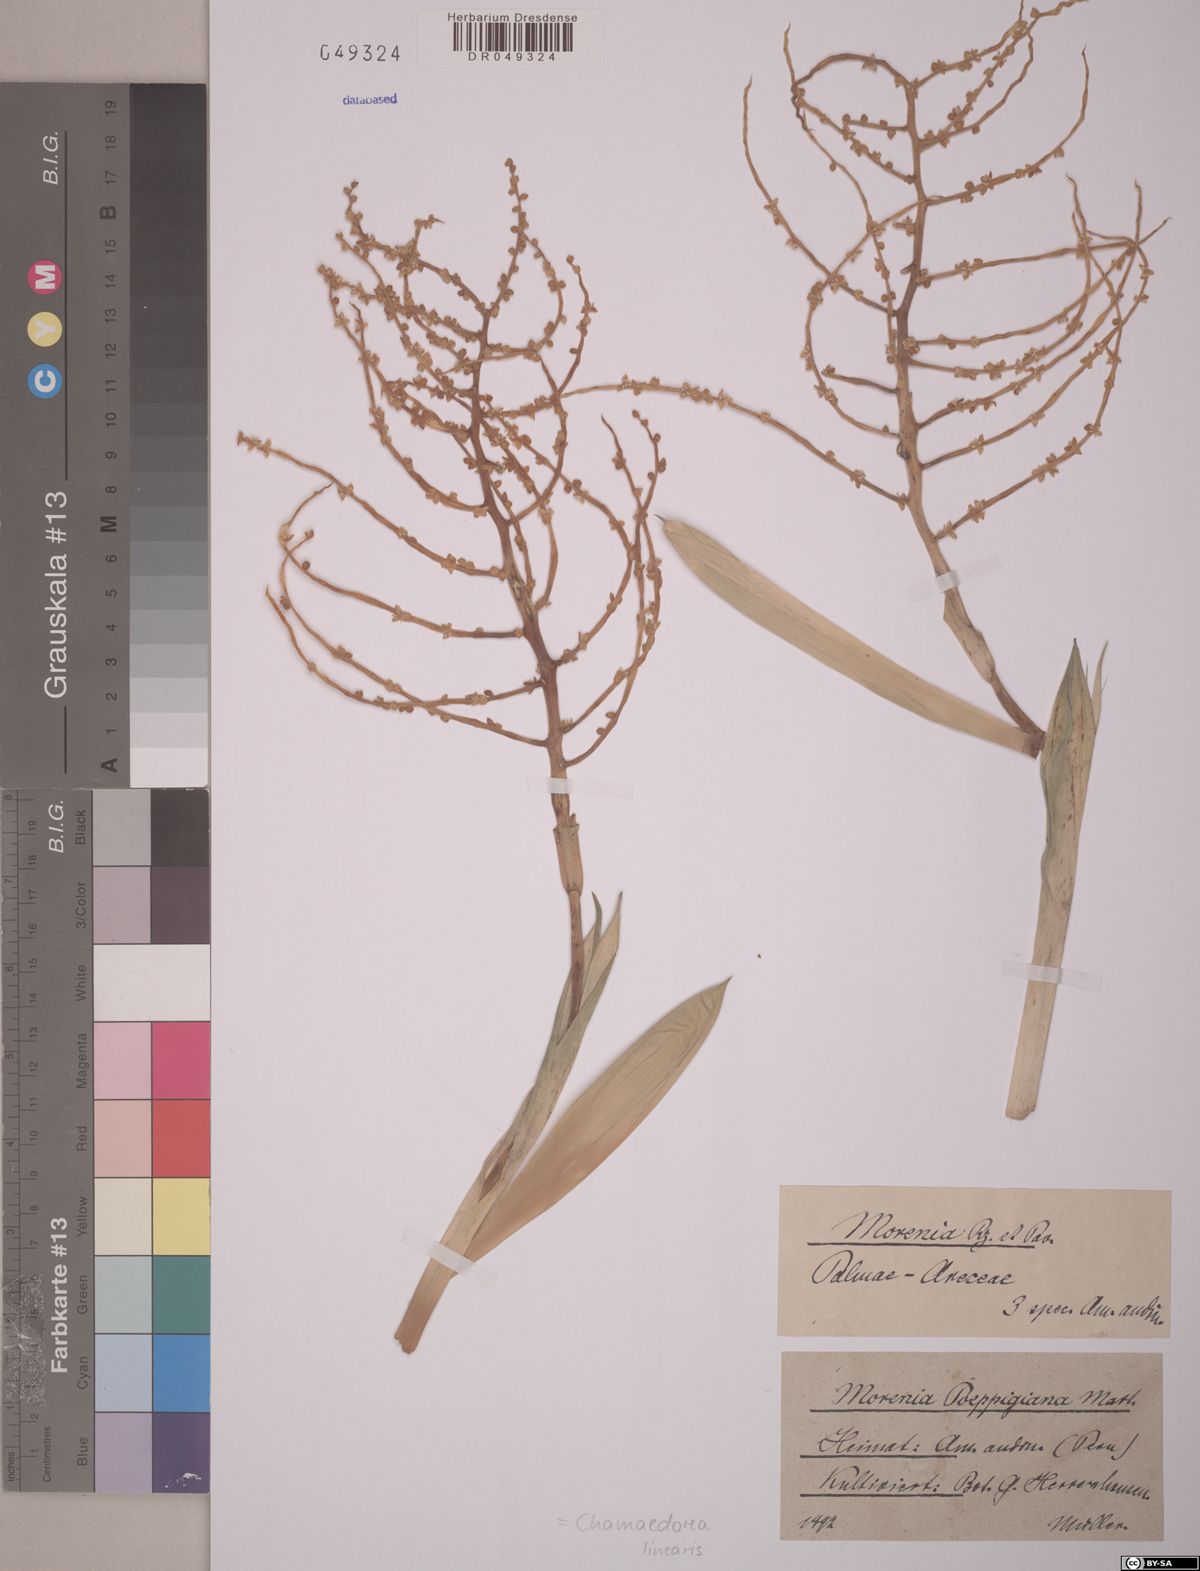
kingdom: Plantae
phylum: Tracheophyta
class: Liliopsida
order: Arecales
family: Arecaceae
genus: Chamaedorea
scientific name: Chamaedorea linearis
